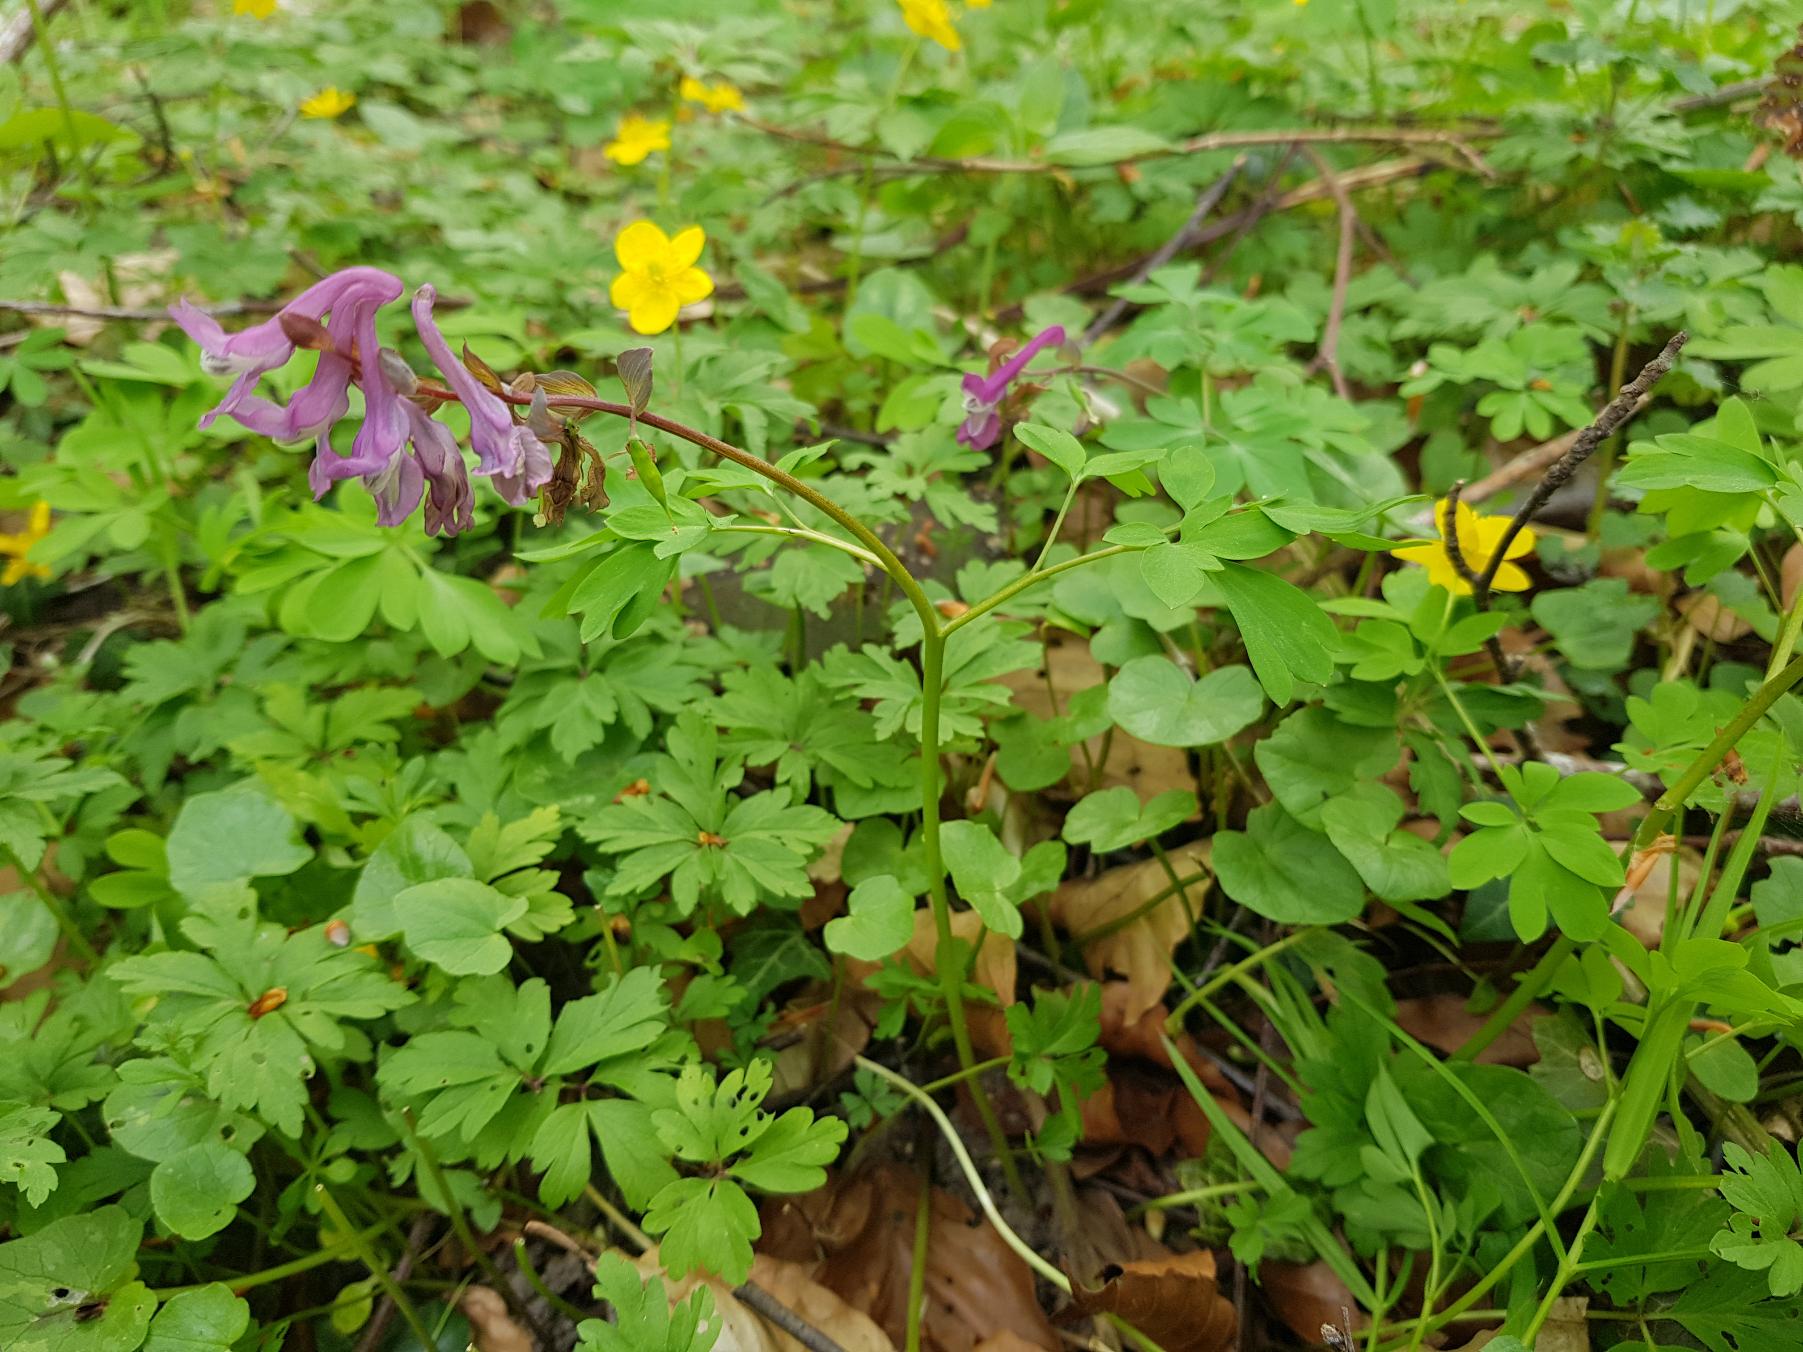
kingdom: Plantae
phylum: Tracheophyta
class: Magnoliopsida
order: Ranunculales
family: Papaveraceae
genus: Corydalis
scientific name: Corydalis cava
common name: Hulrodet lærkespore
